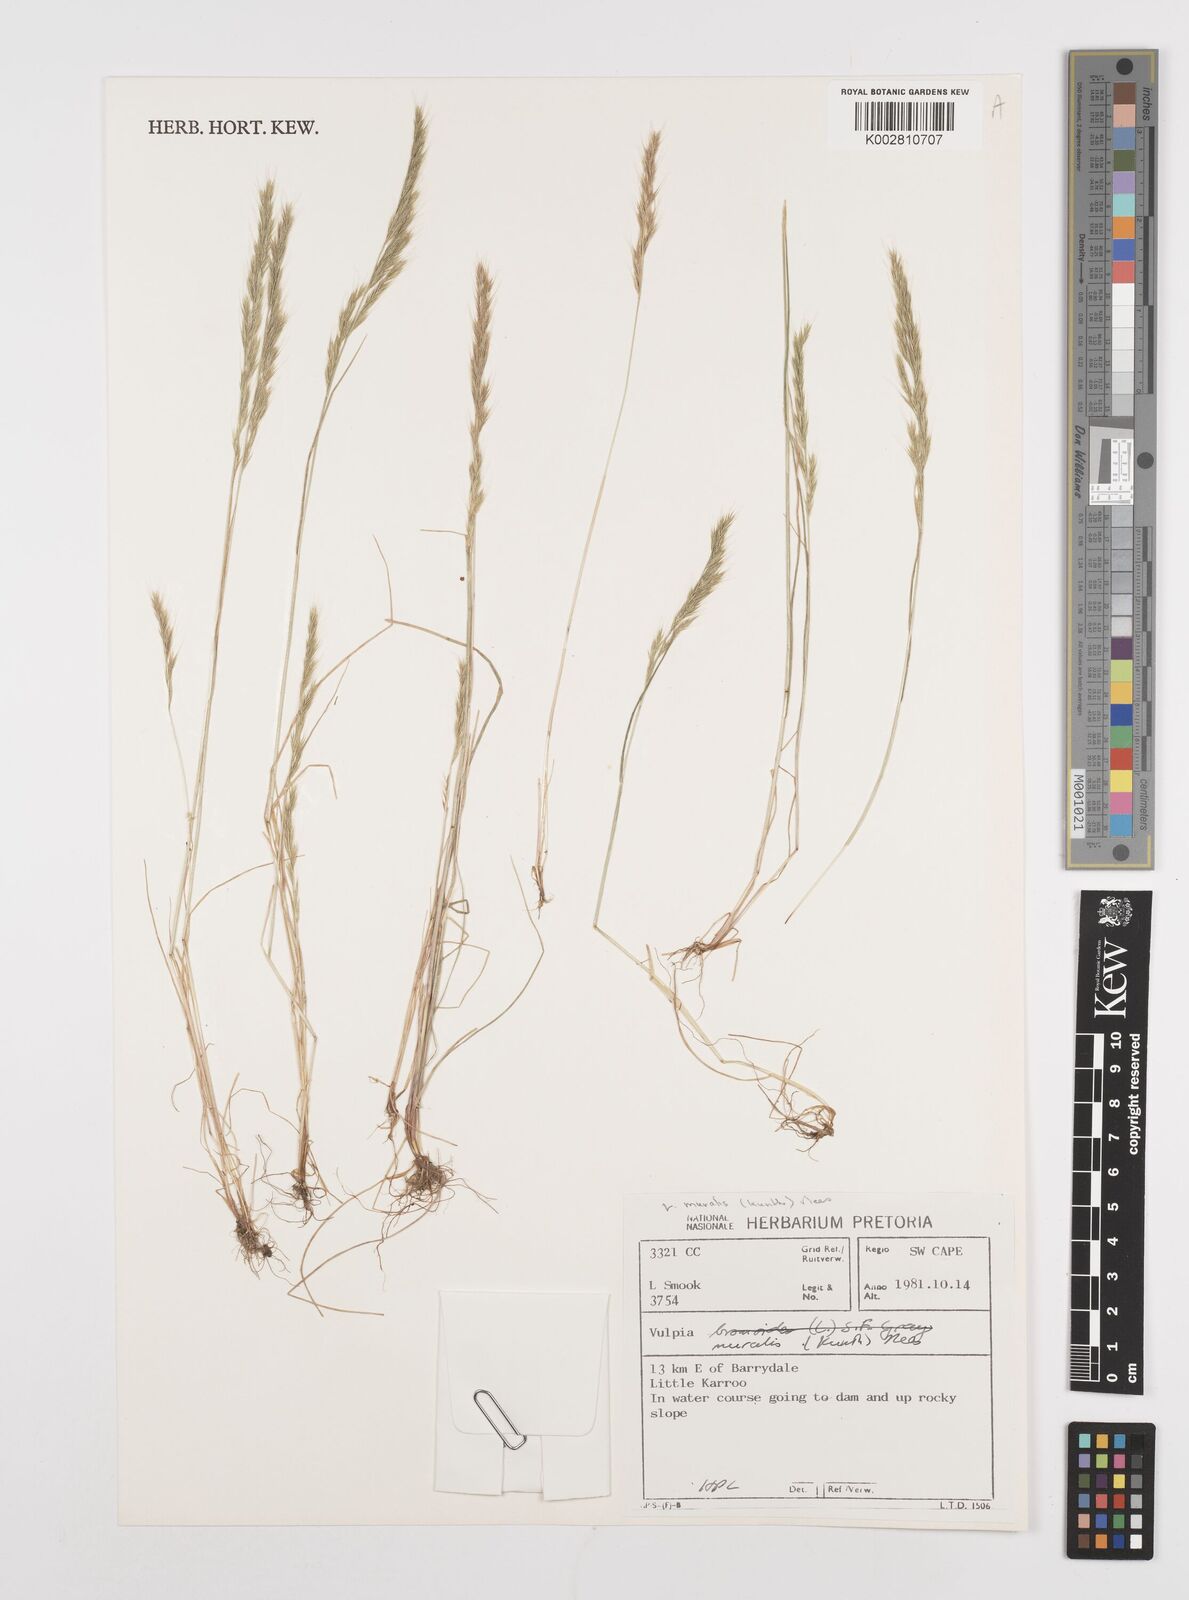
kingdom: Plantae
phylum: Tracheophyta
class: Liliopsida
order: Poales
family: Poaceae
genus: Festuca
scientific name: Festuca muralis
